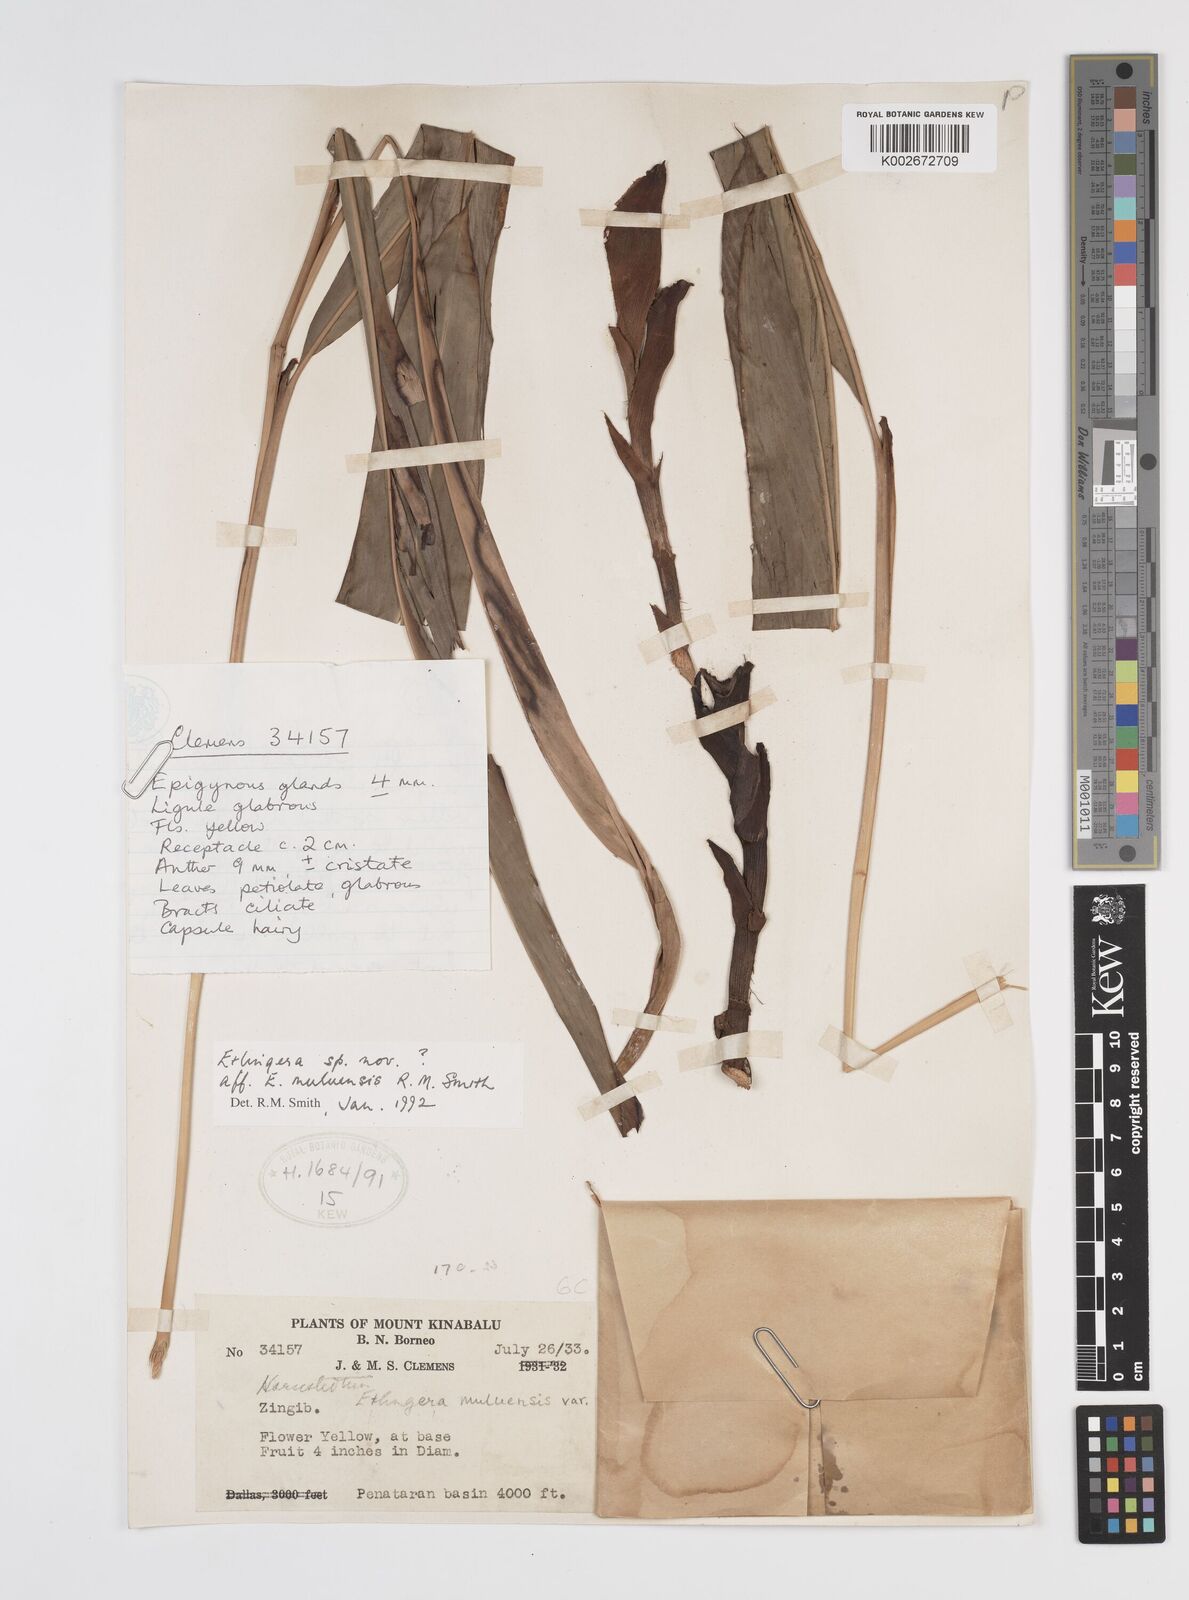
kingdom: Plantae
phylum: Tracheophyta
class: Liliopsida
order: Zingiberales
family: Zingiberaceae
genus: Etlingera
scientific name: Etlingera pubescens
